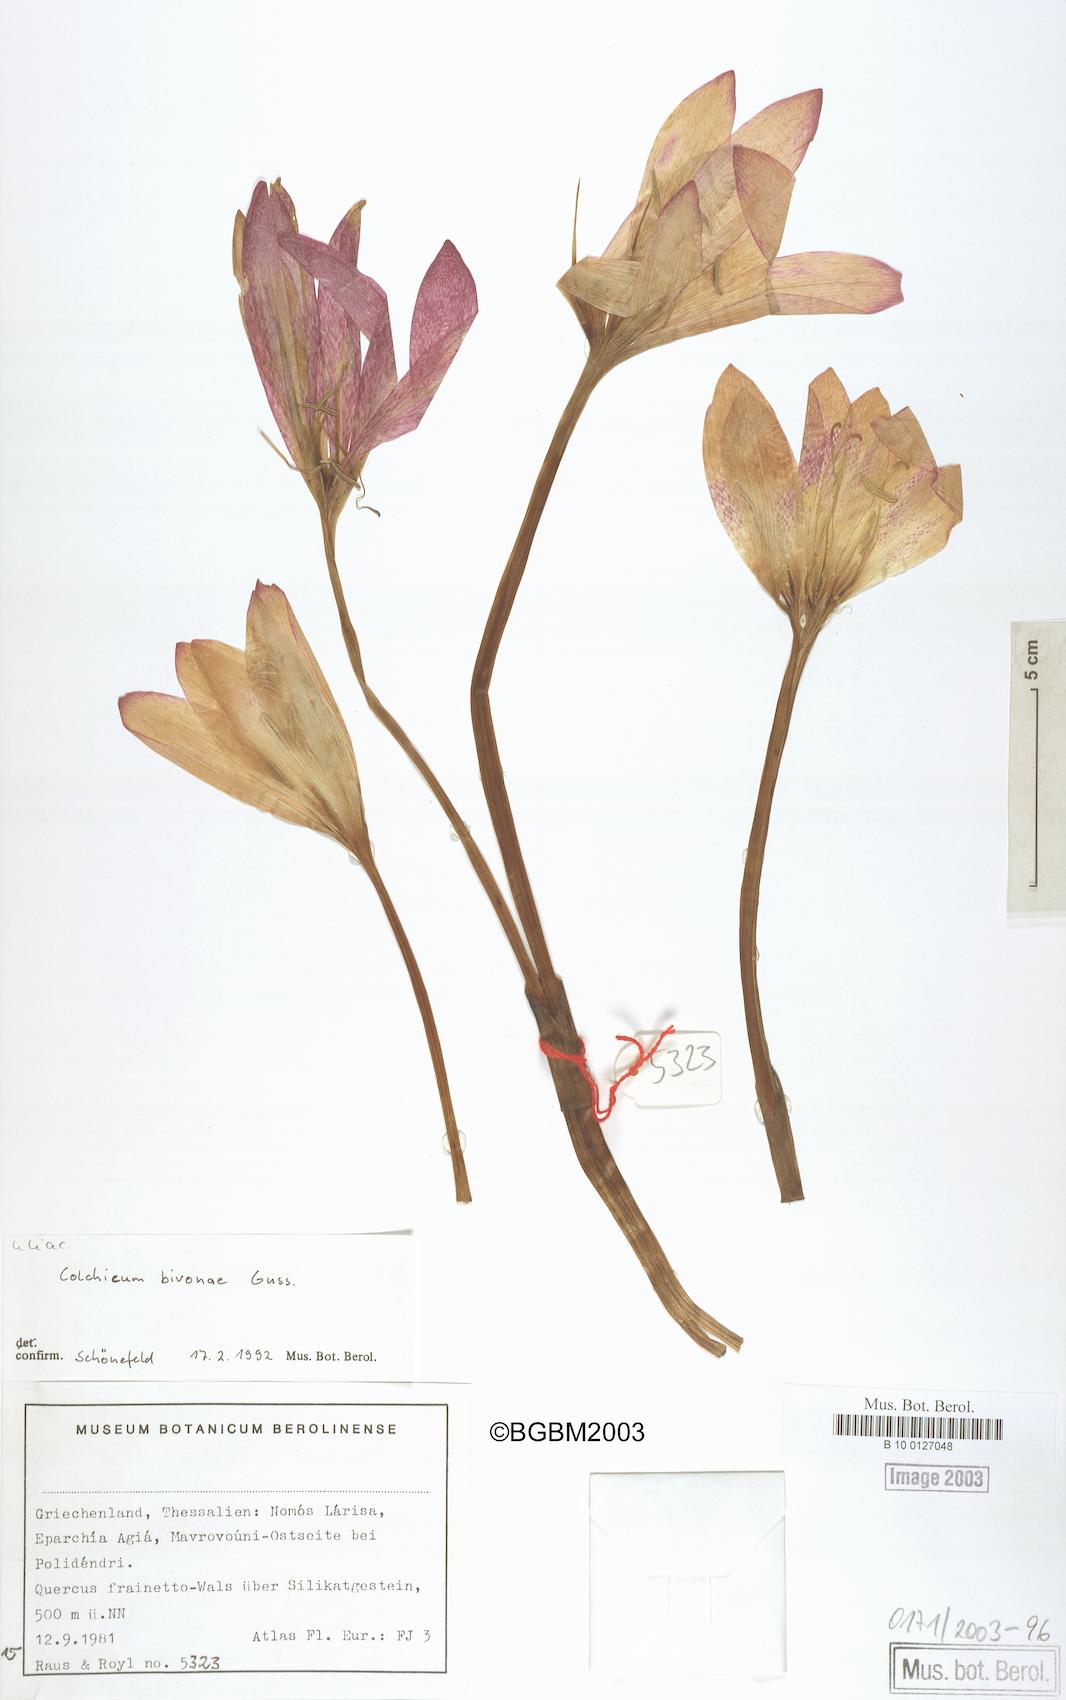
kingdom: Plantae
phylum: Tracheophyta
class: Liliopsida
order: Liliales
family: Colchicaceae
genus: Colchicum
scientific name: Colchicum bivonae
